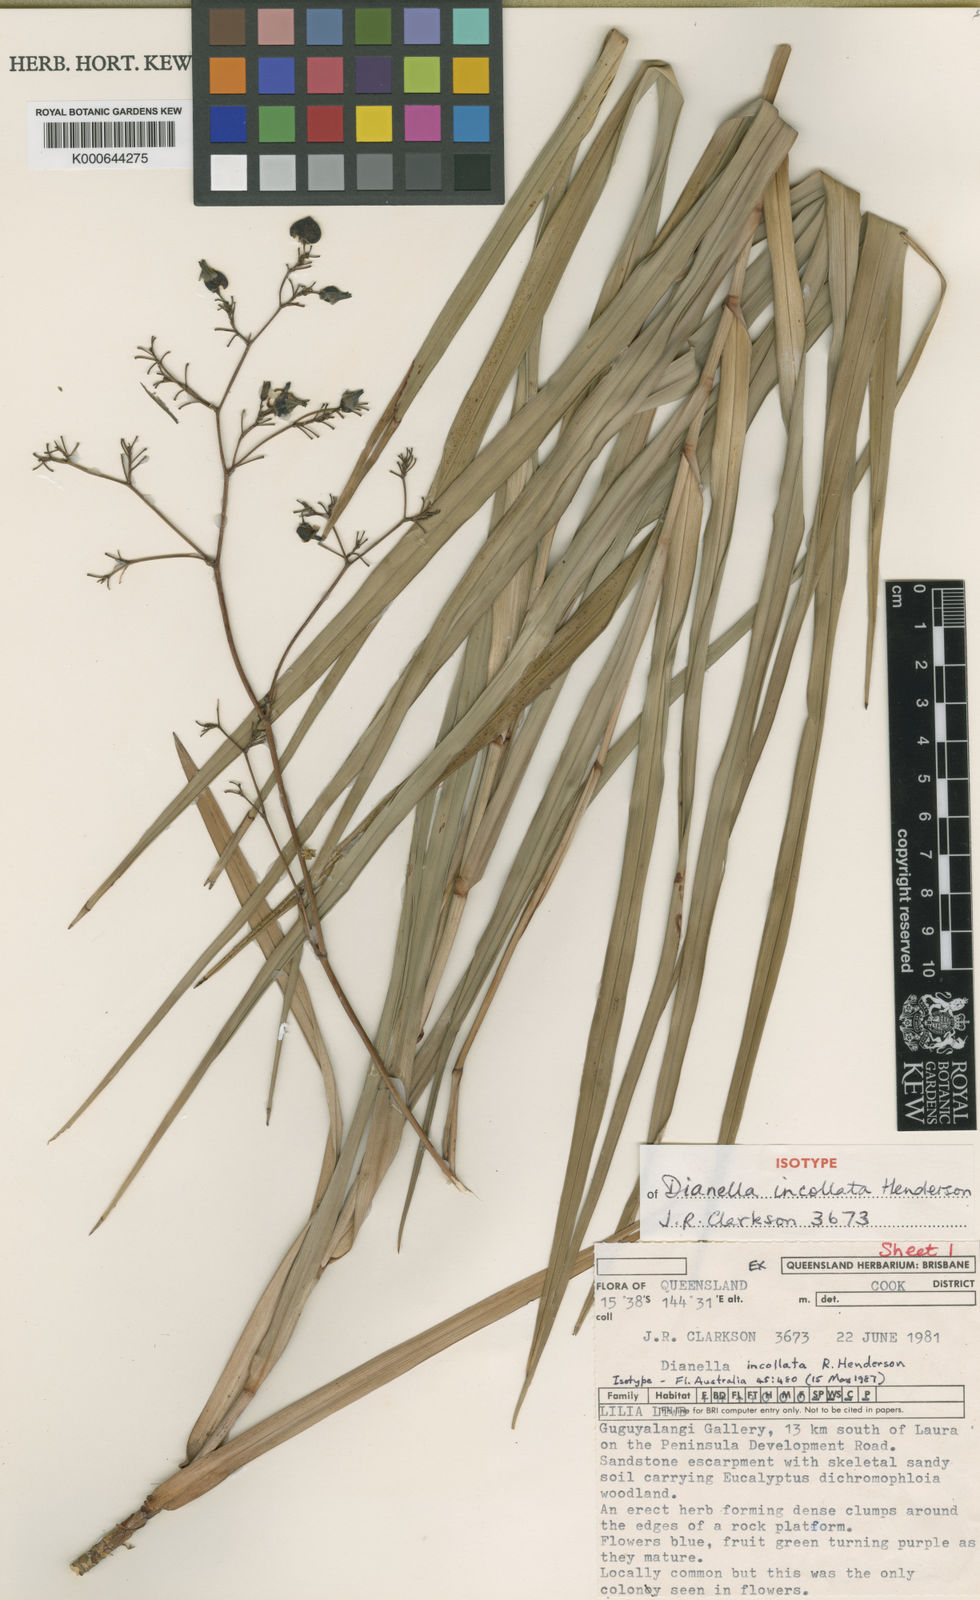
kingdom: Plantae
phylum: Tracheophyta
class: Liliopsida
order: Asparagales
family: Asphodelaceae
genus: Dianella
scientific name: Dianella incollata
